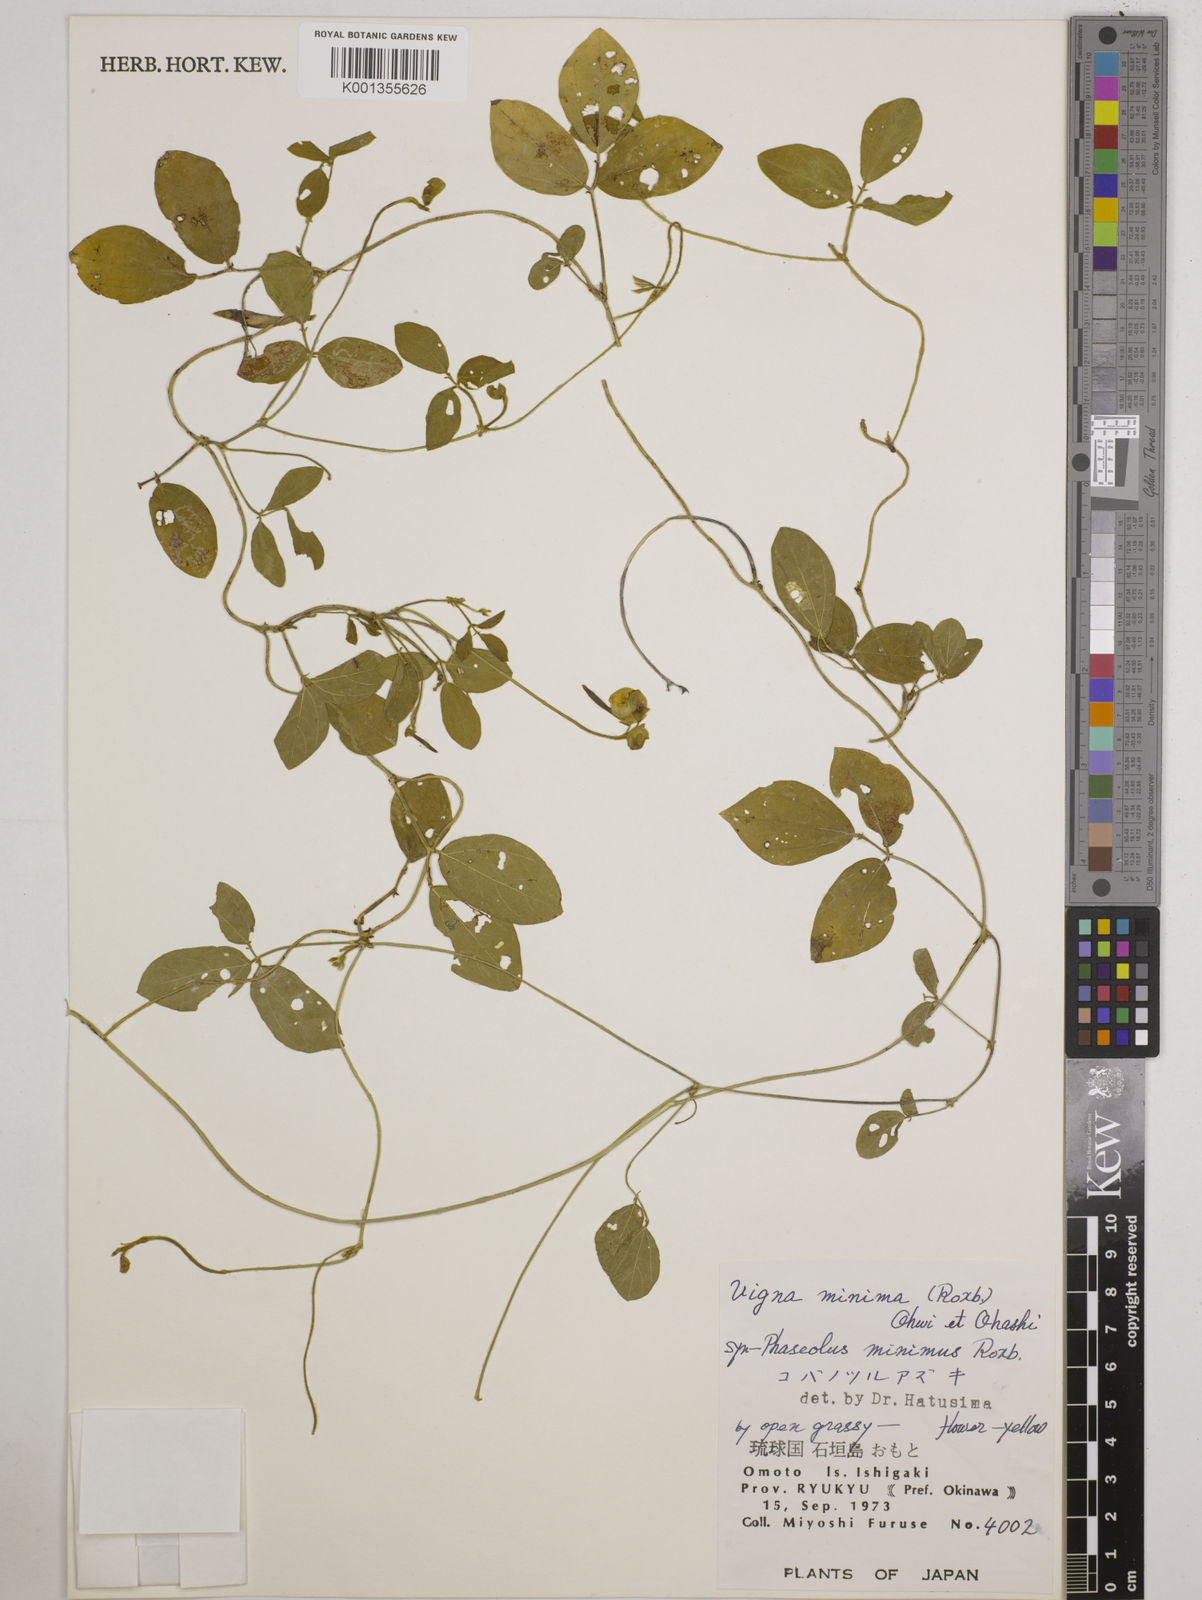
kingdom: Plantae
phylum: Tracheophyta
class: Magnoliopsida
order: Fabales
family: Fabaceae
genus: Vigna
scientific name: Vigna minima
